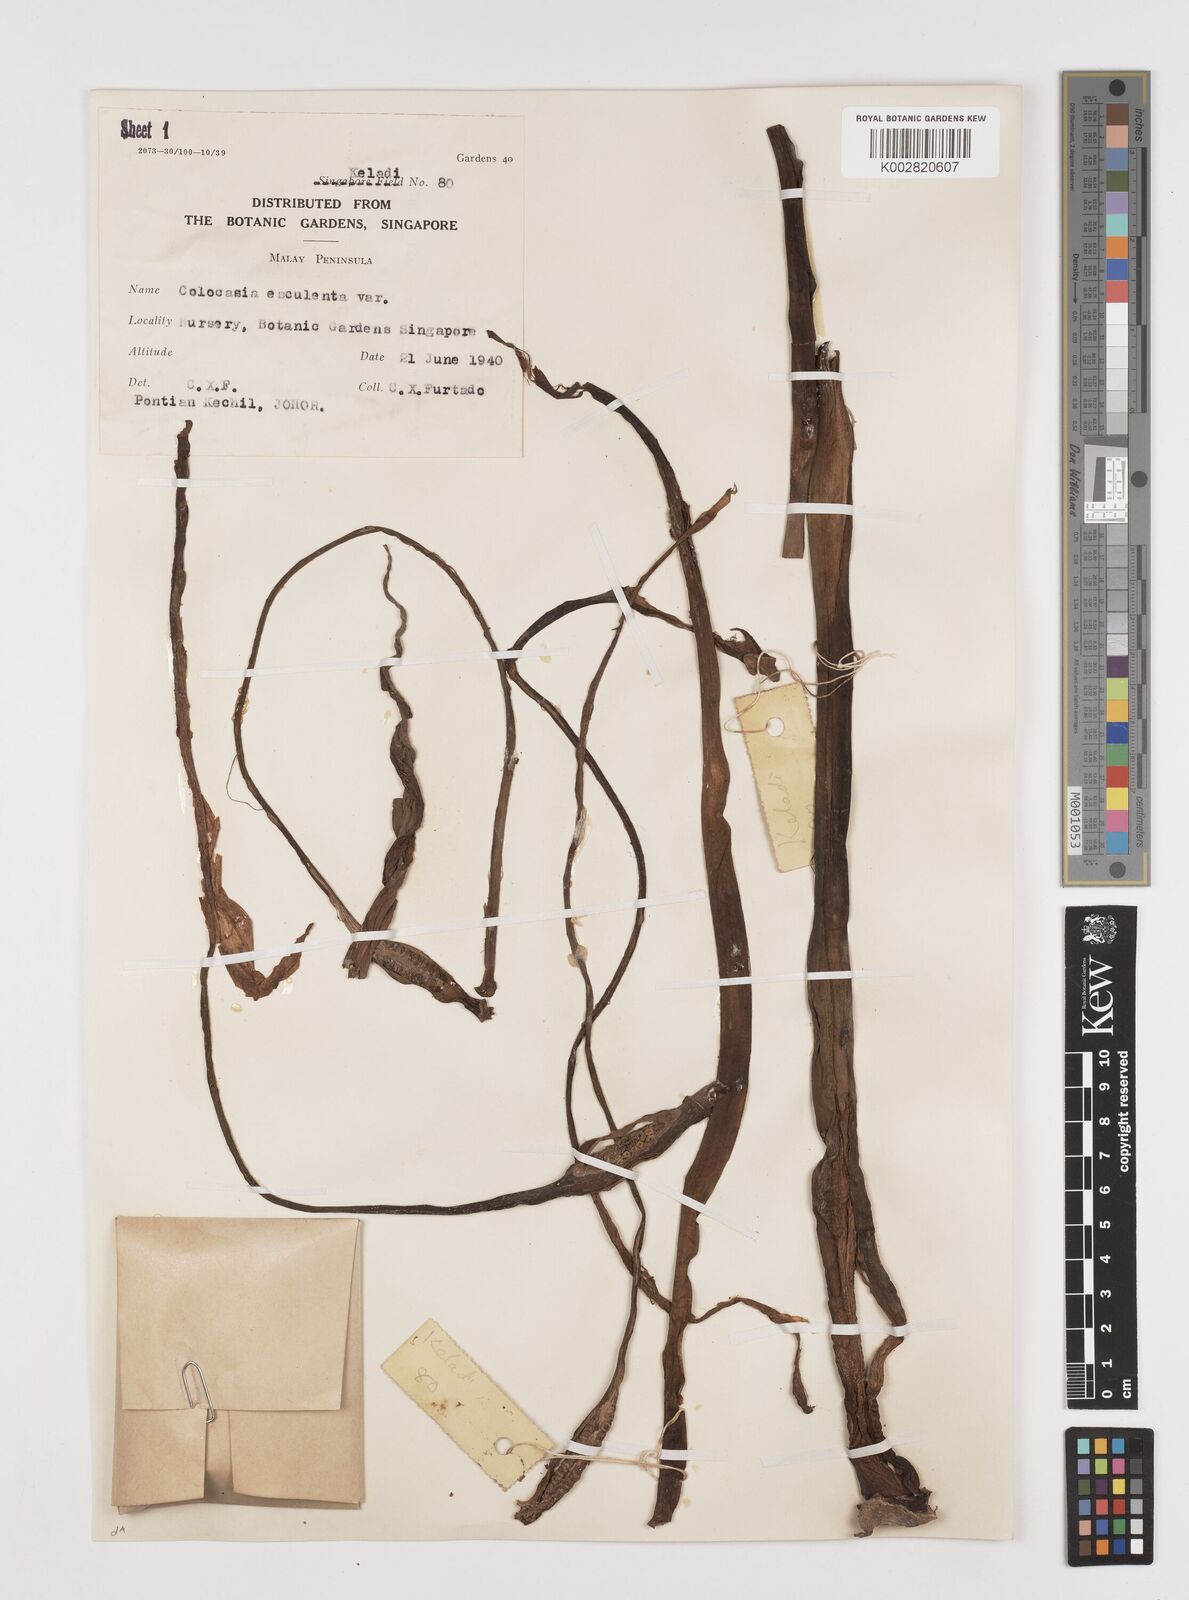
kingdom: Plantae
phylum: Tracheophyta
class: Liliopsida
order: Alismatales
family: Araceae
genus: Colocasia
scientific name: Colocasia esculenta
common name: Taro
